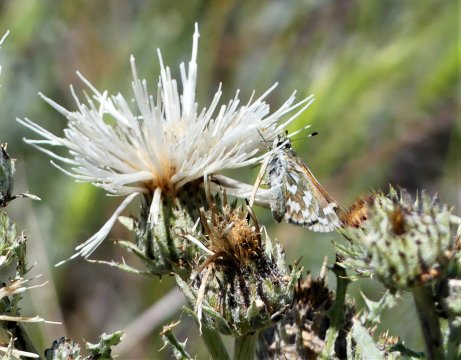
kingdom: Animalia
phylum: Arthropoda
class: Insecta
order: Lepidoptera
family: Hesperiidae
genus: Hesperia
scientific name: Hesperia juba
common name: Juba Skipper
